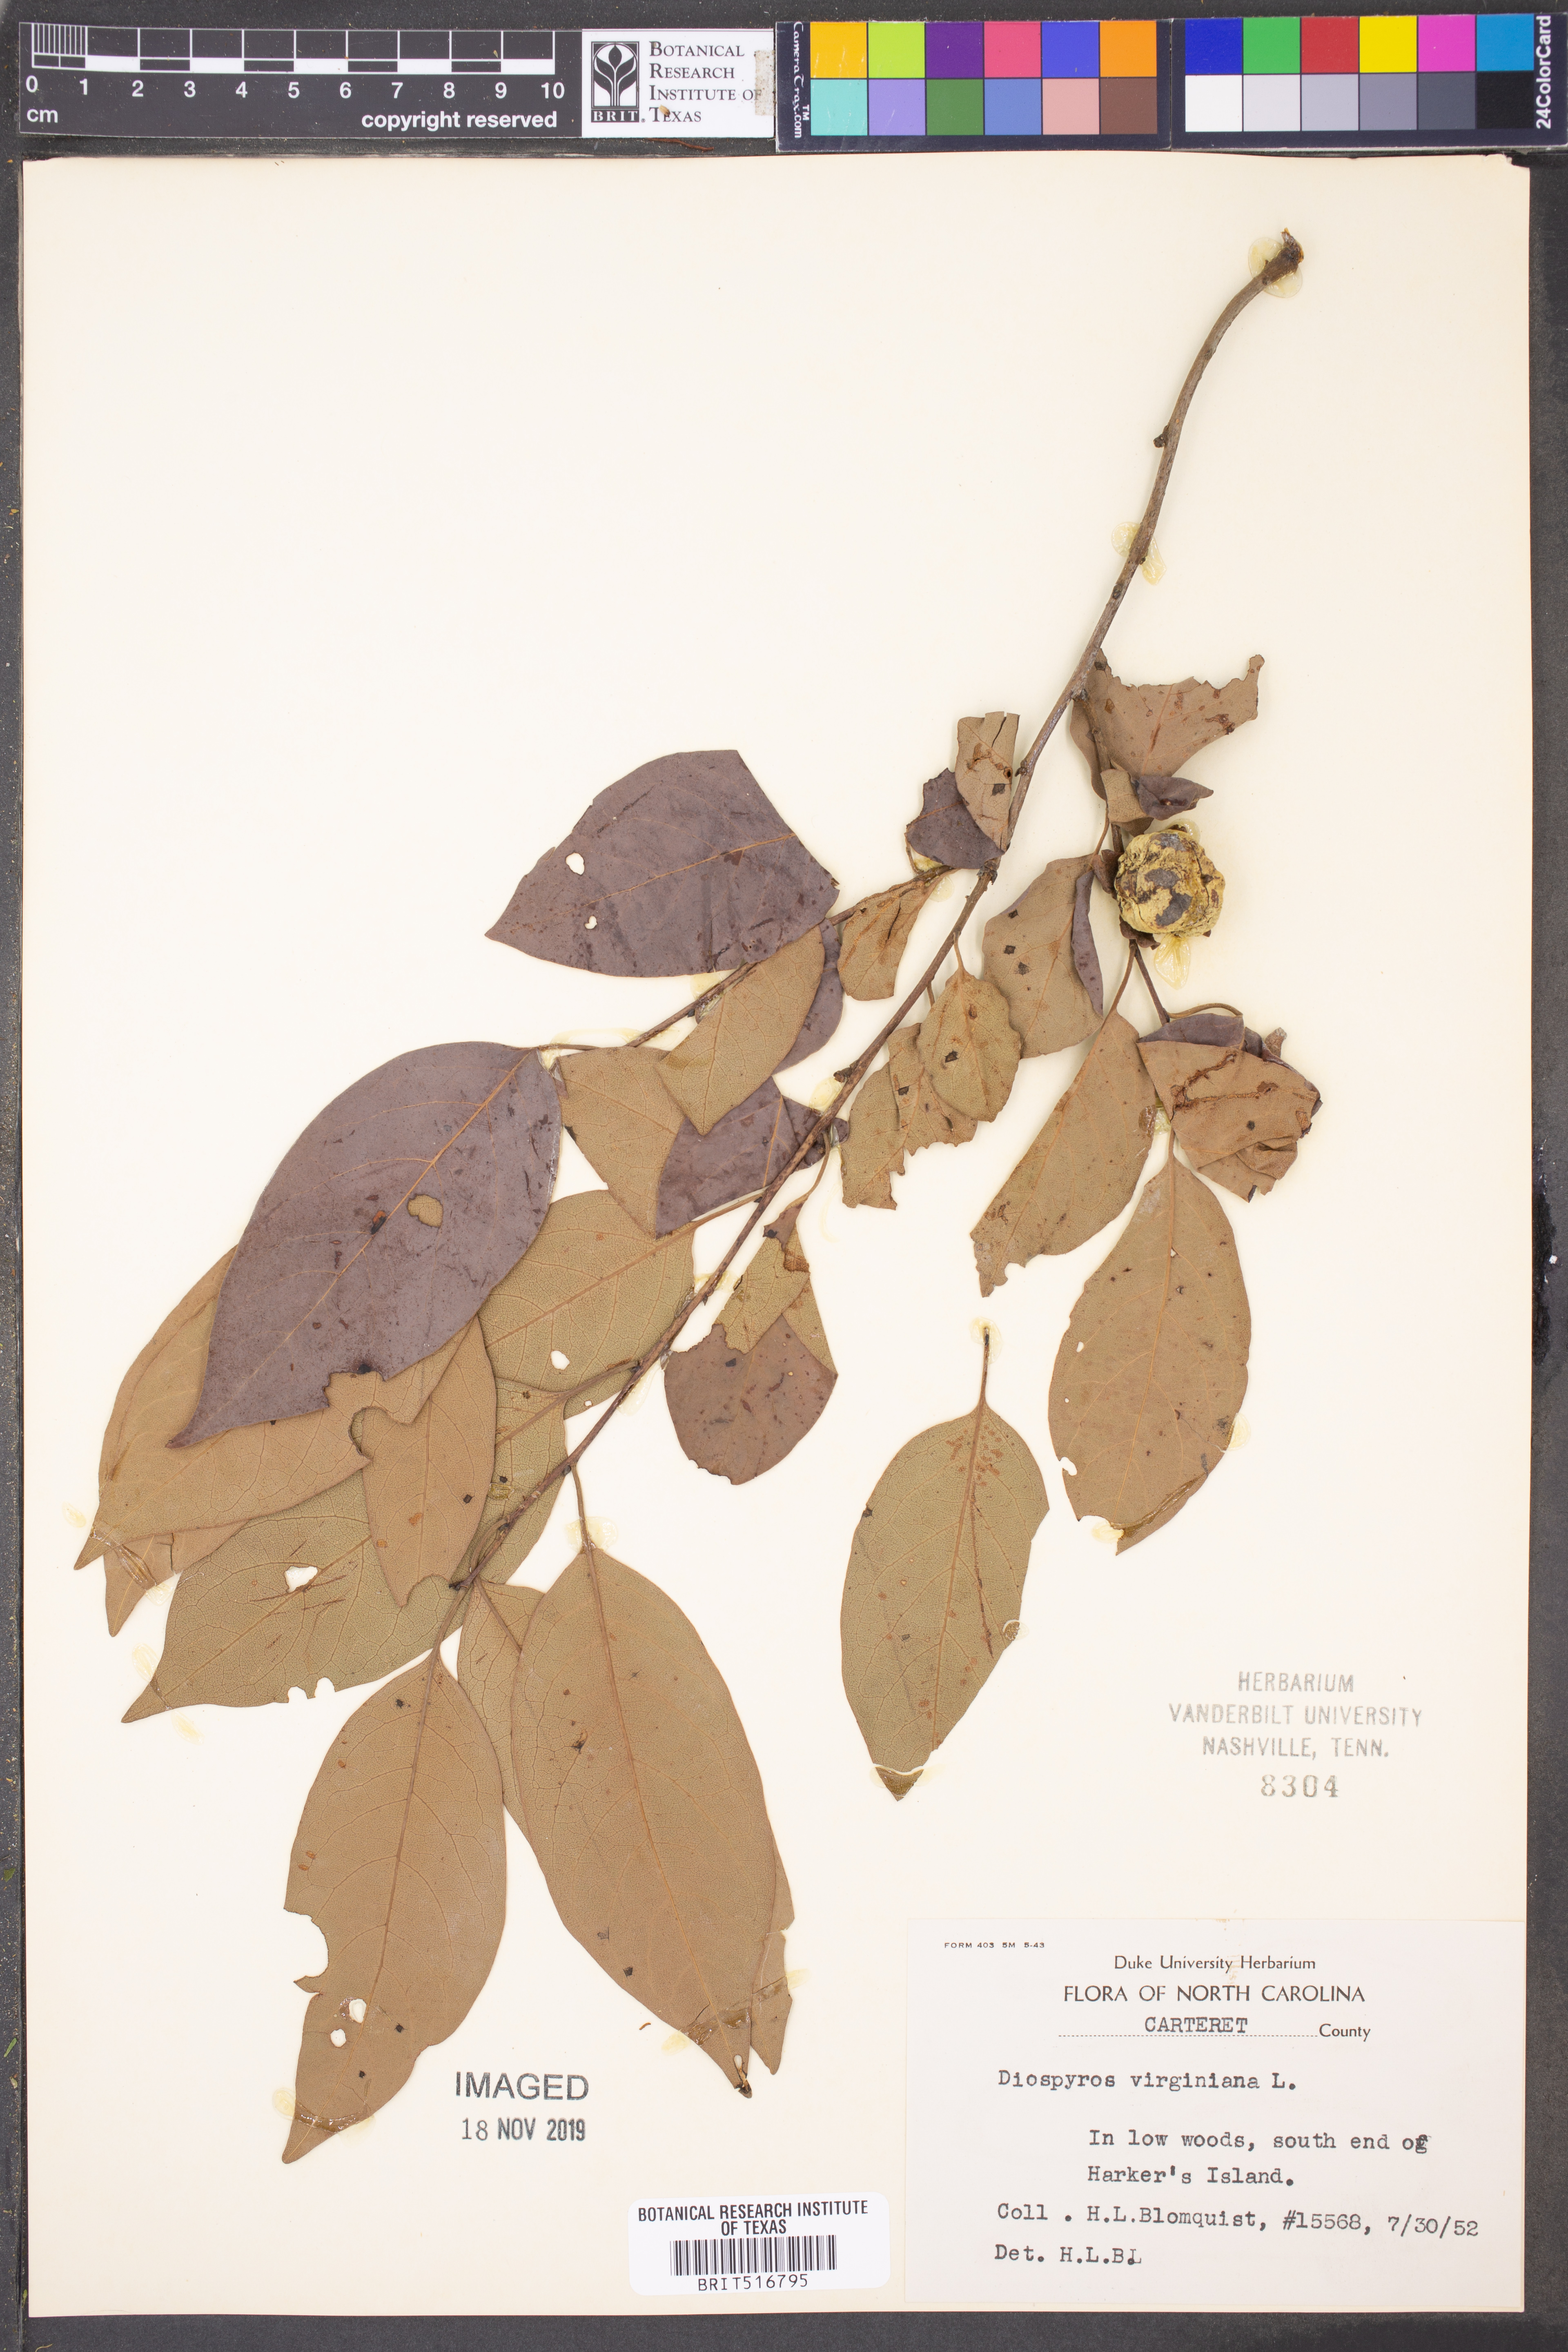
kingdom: Plantae
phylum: Tracheophyta
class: Magnoliopsida
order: Ericales
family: Ebenaceae
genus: Diospyros
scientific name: Diospyros virginiana
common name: Persimmon
